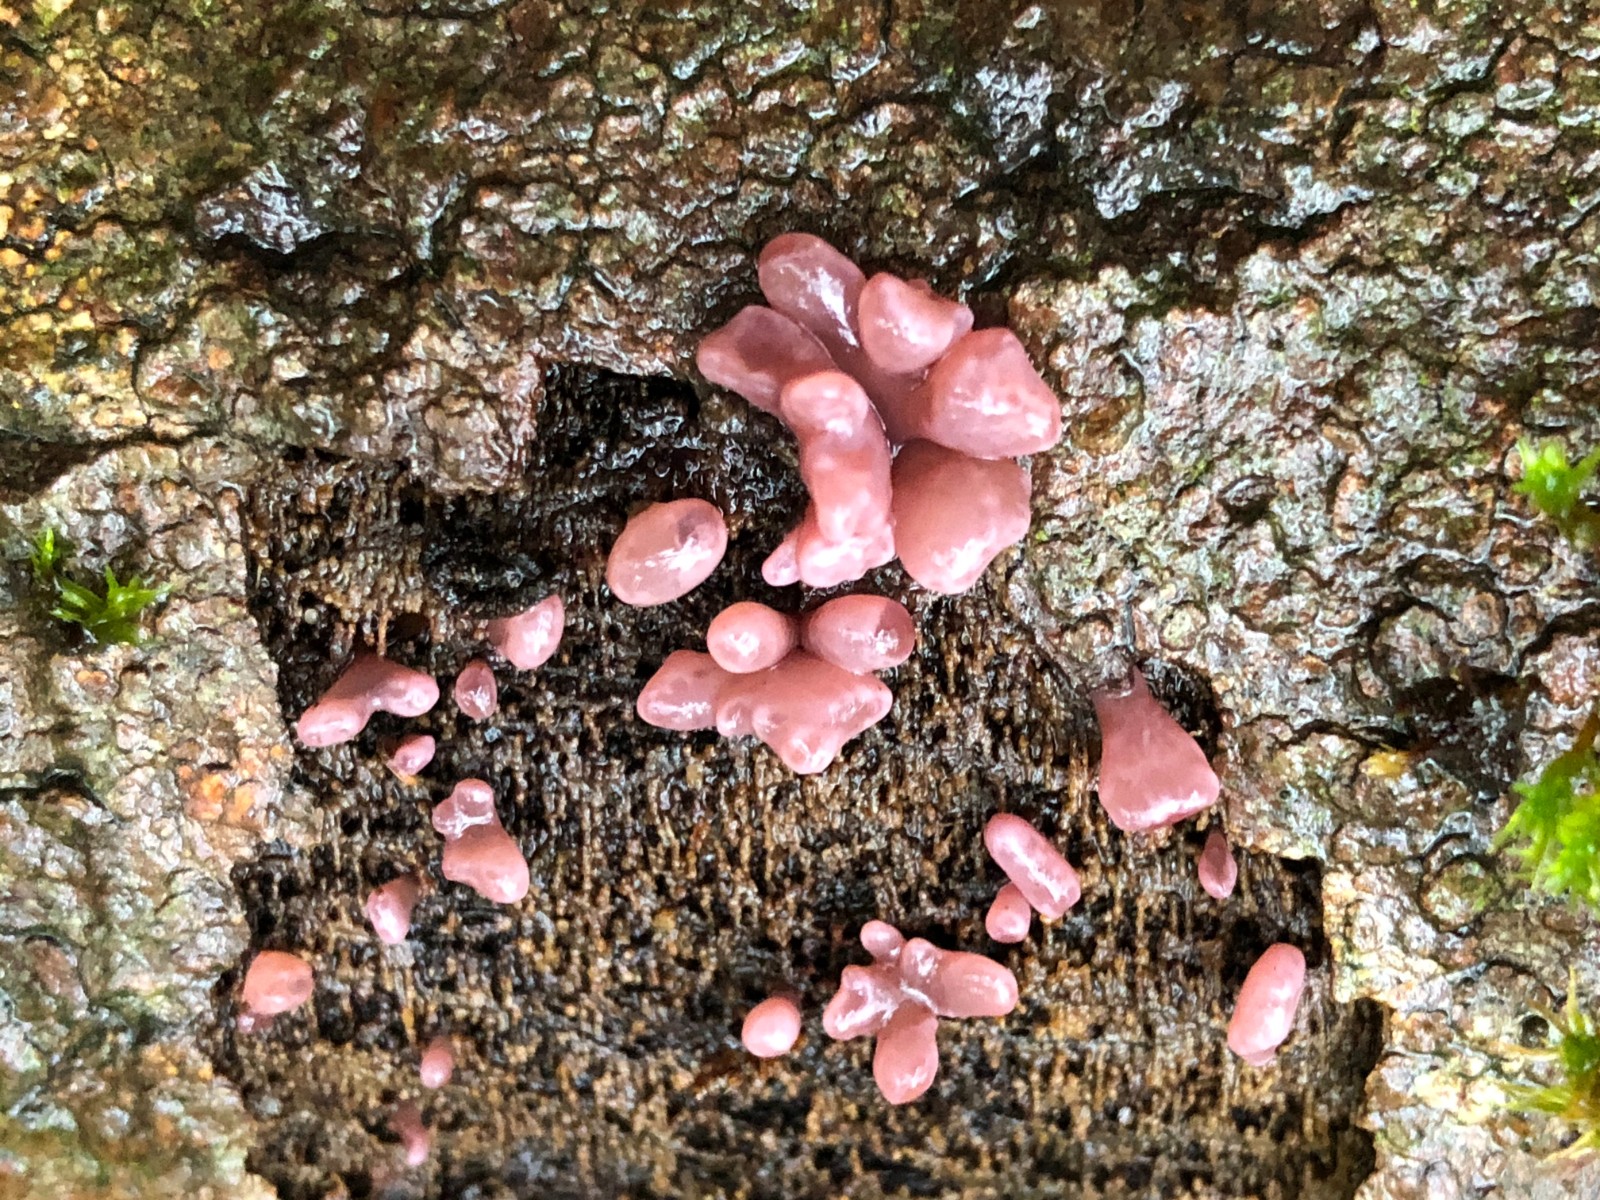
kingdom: Fungi
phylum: Ascomycota
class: Leotiomycetes
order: Helotiales
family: Gelatinodiscaceae
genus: Ascocoryne
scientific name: Ascocoryne sarcoides
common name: rødlilla sejskive
